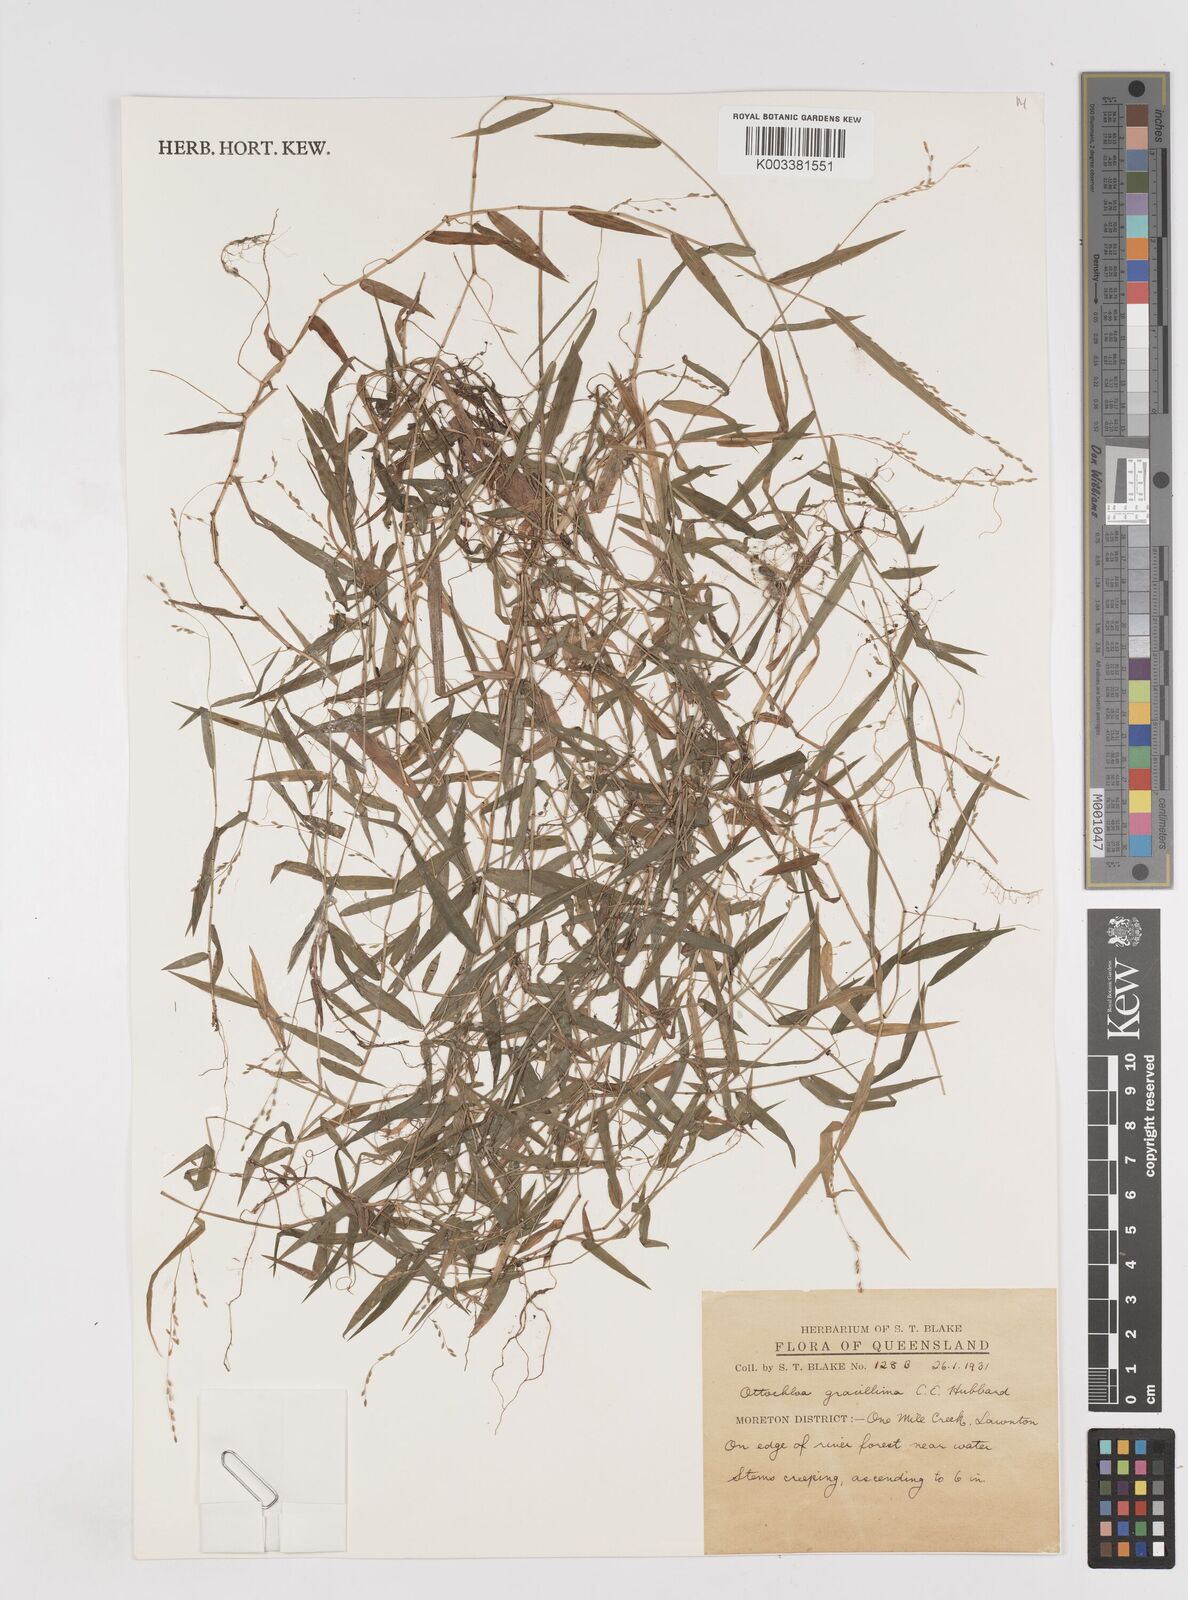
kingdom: Plantae
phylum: Tracheophyta
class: Liliopsida
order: Poales
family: Poaceae
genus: Ottochloa
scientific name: Ottochloa gracillima
